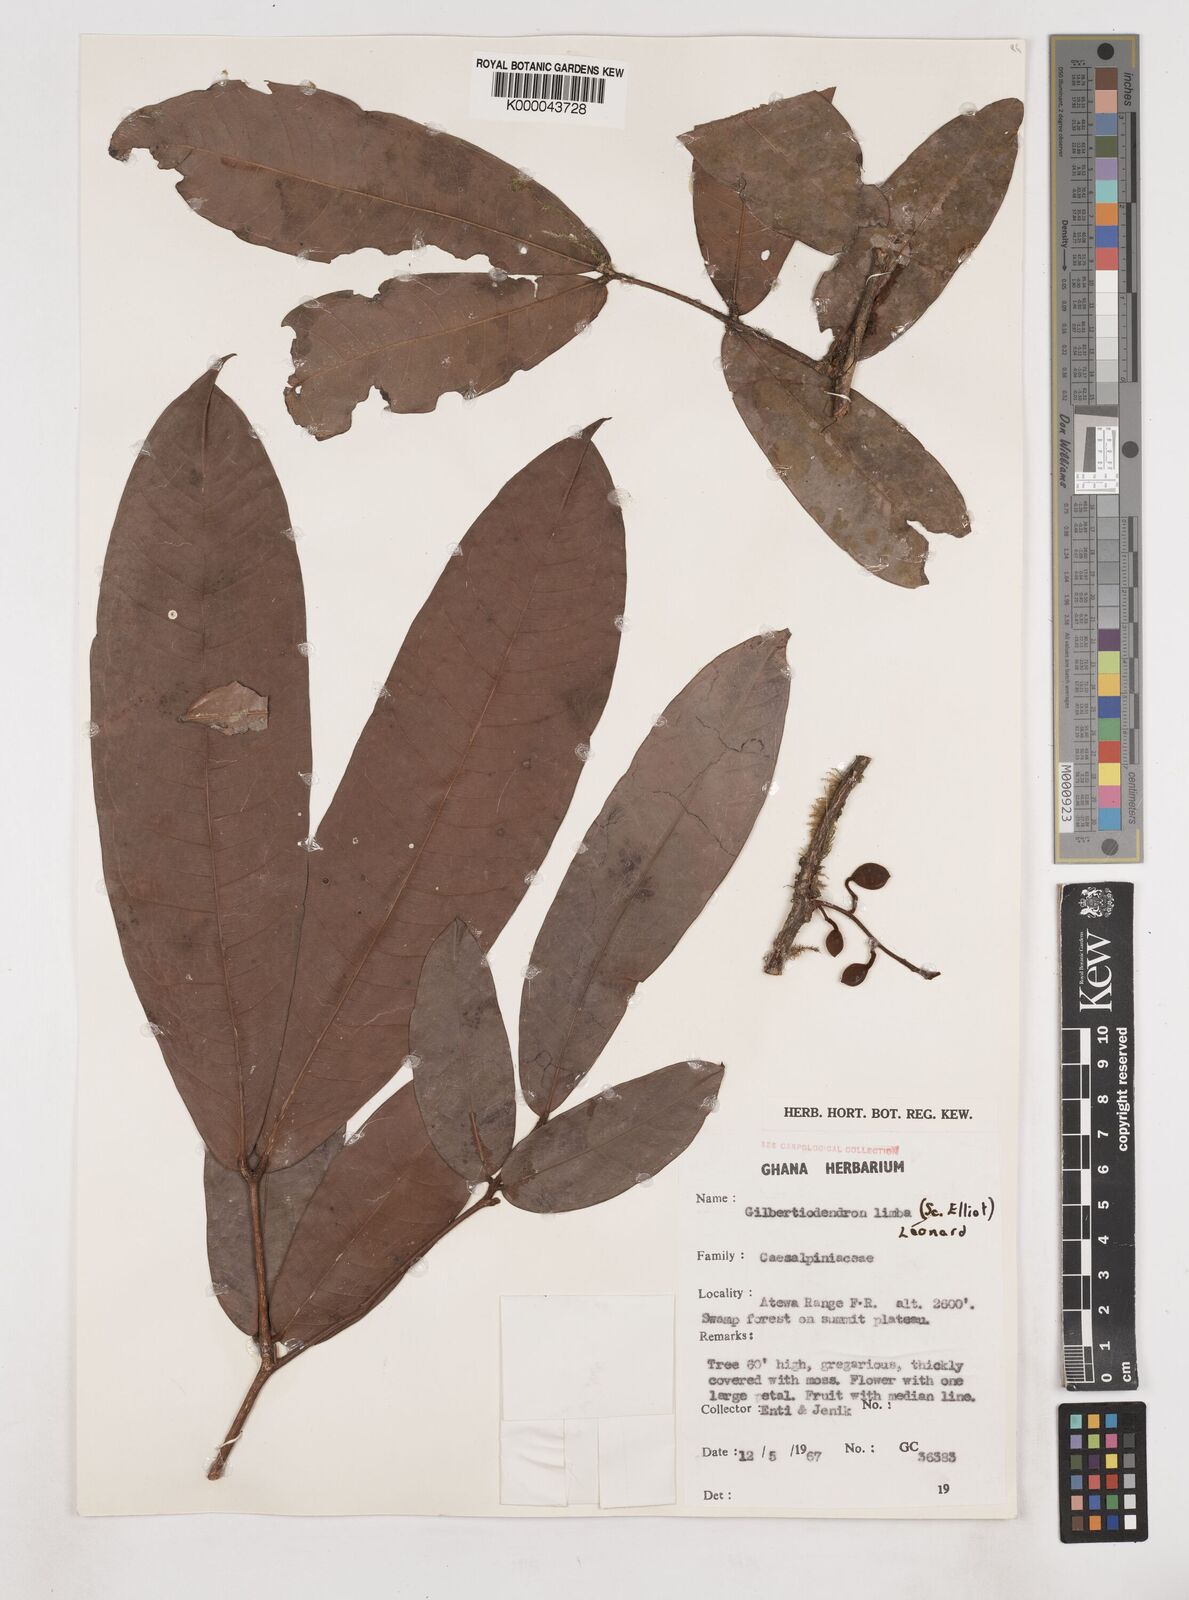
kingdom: Plantae
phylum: Tracheophyta
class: Magnoliopsida
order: Fabales
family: Fabaceae
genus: Gilbertiodendron
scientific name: Gilbertiodendron
